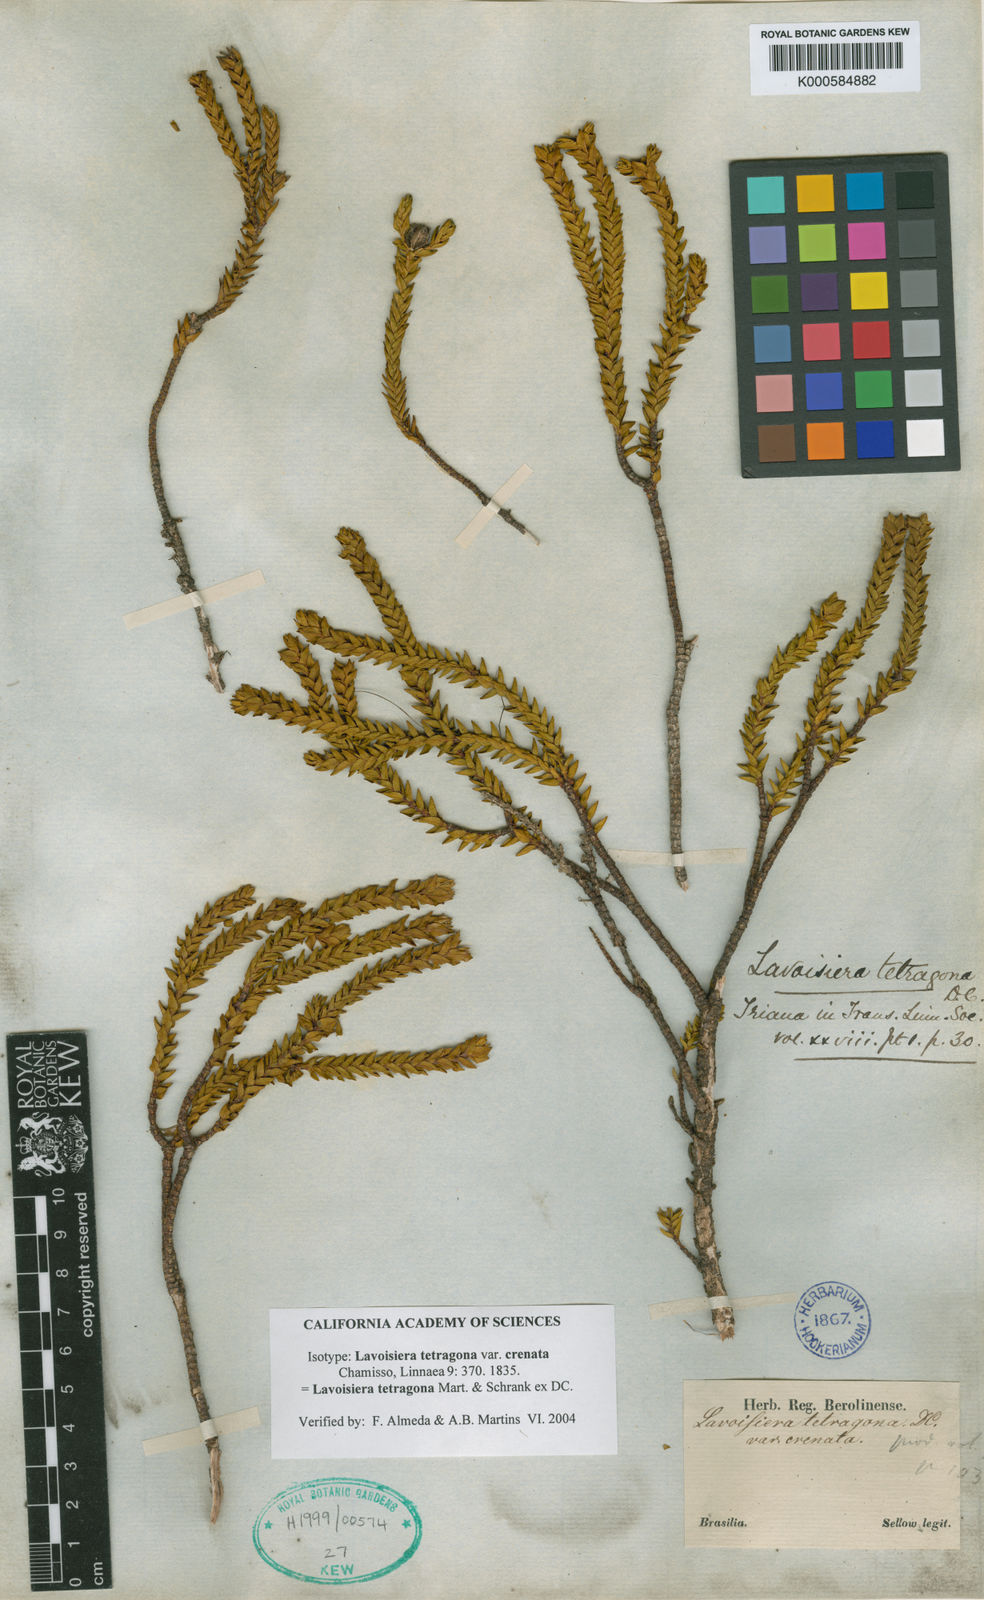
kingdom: Plantae
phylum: Tracheophyta
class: Magnoliopsida
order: Myrtales
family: Melastomataceae
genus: Microlicia
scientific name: Microlicia tetragona
